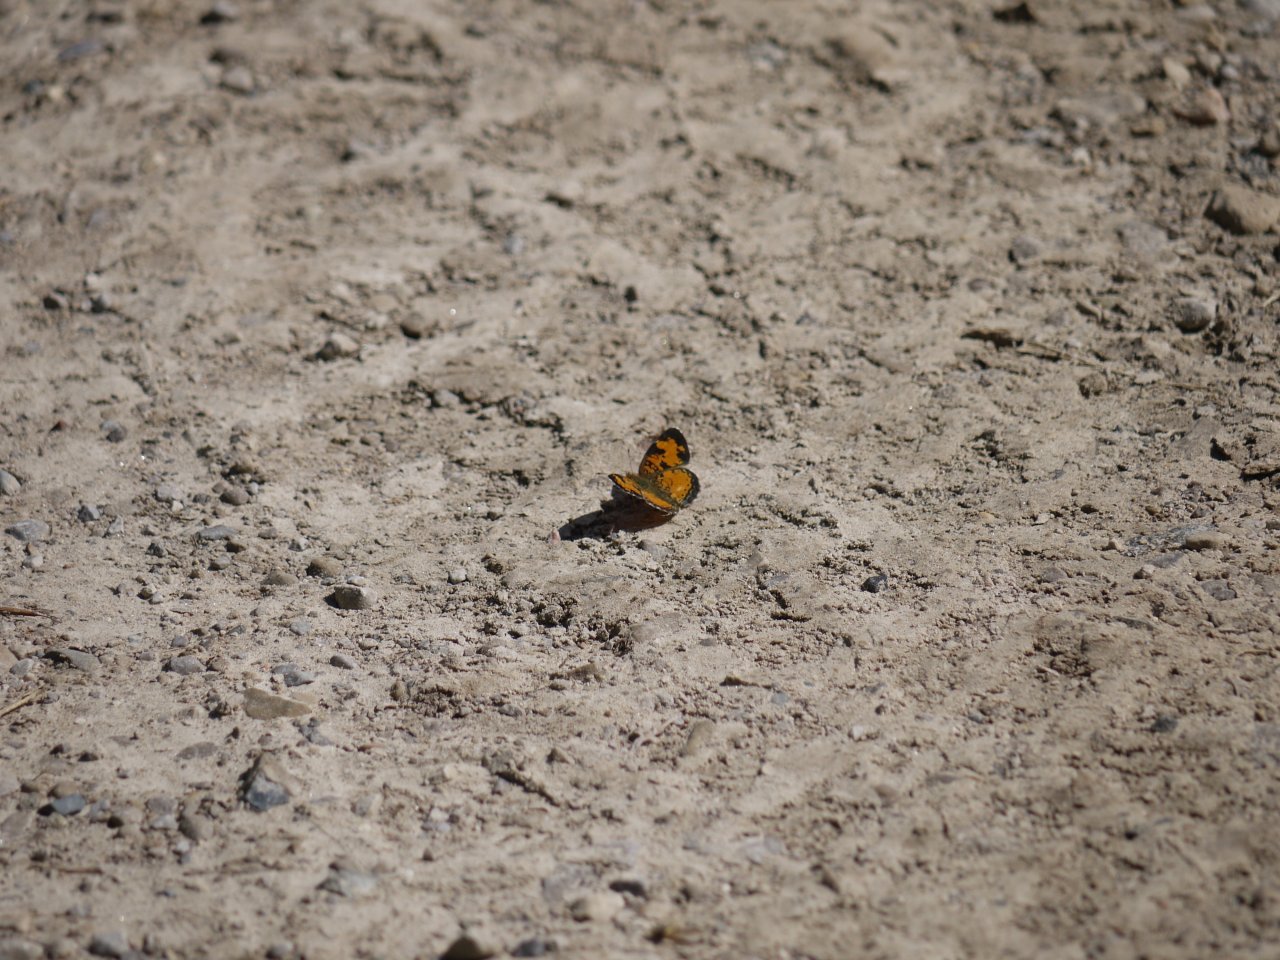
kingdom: Animalia
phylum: Arthropoda
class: Insecta
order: Lepidoptera
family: Nymphalidae
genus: Phyciodes
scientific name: Phyciodes tharos
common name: Northern Crescent
